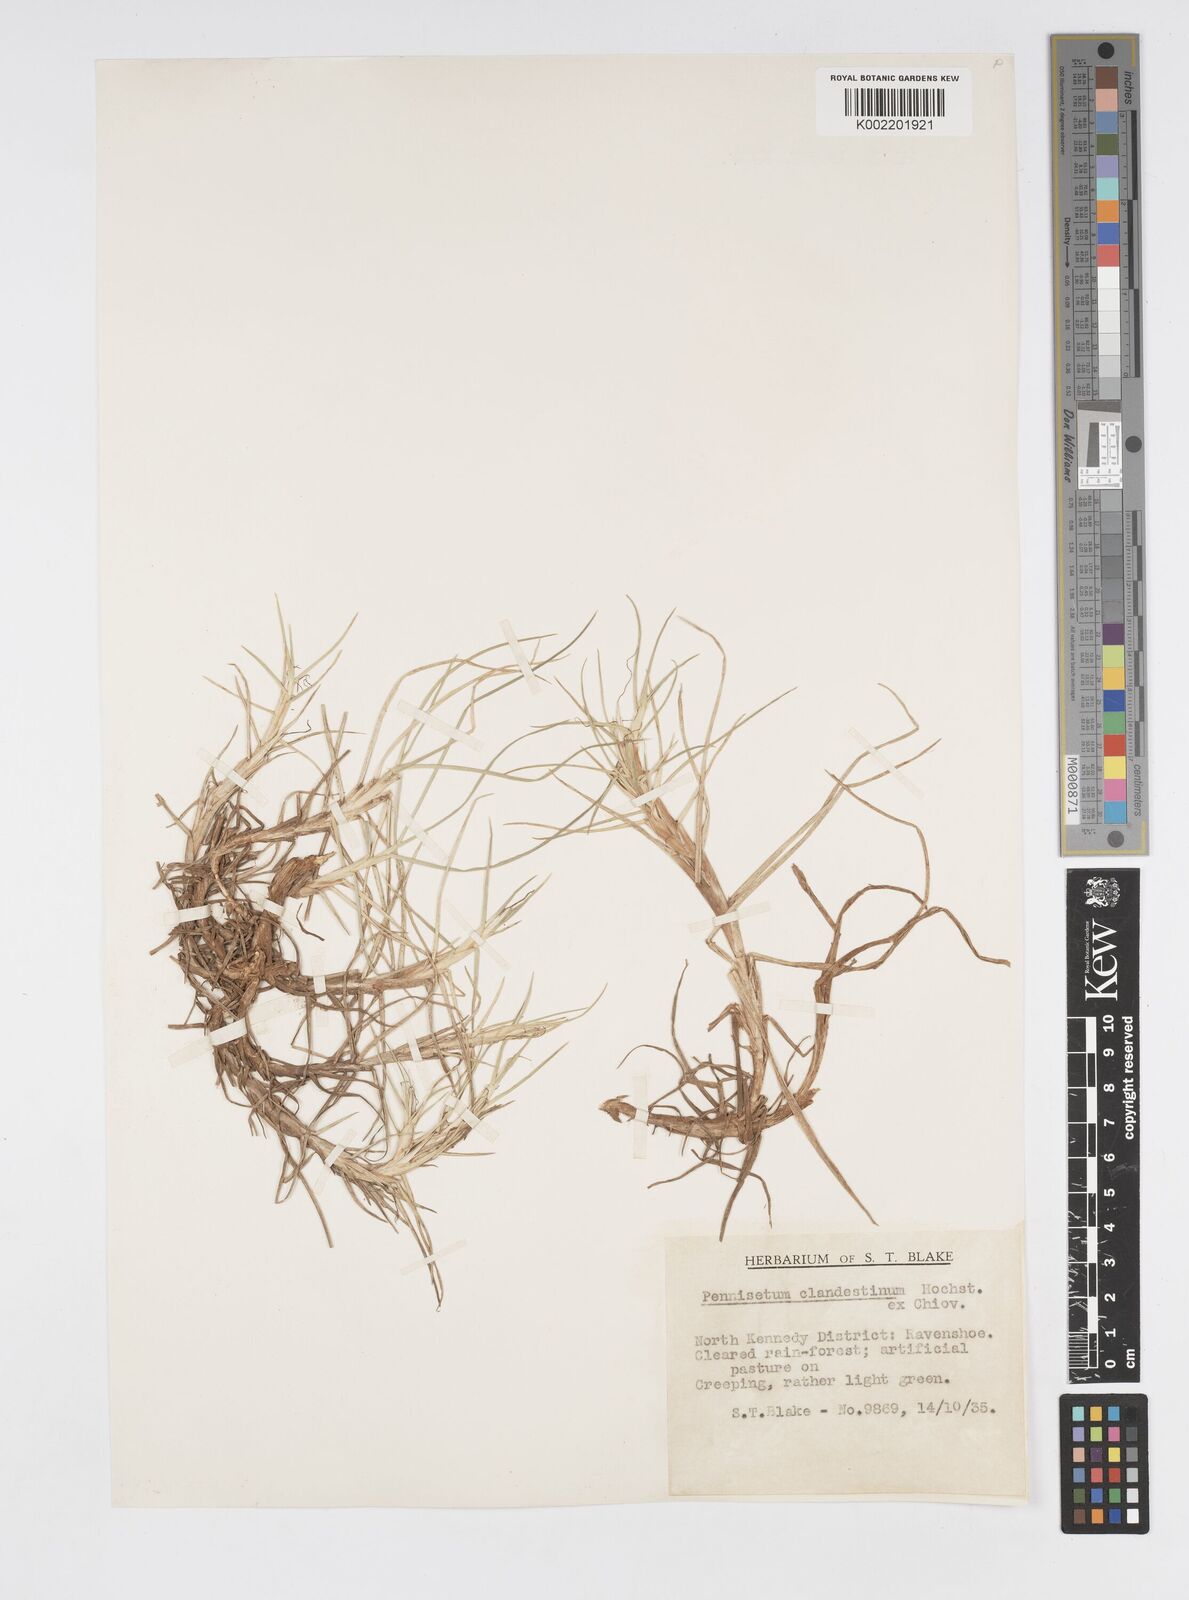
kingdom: Plantae
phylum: Tracheophyta
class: Liliopsida
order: Poales
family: Poaceae
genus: Cenchrus
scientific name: Cenchrus clandestinus
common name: Kikuyugrass
